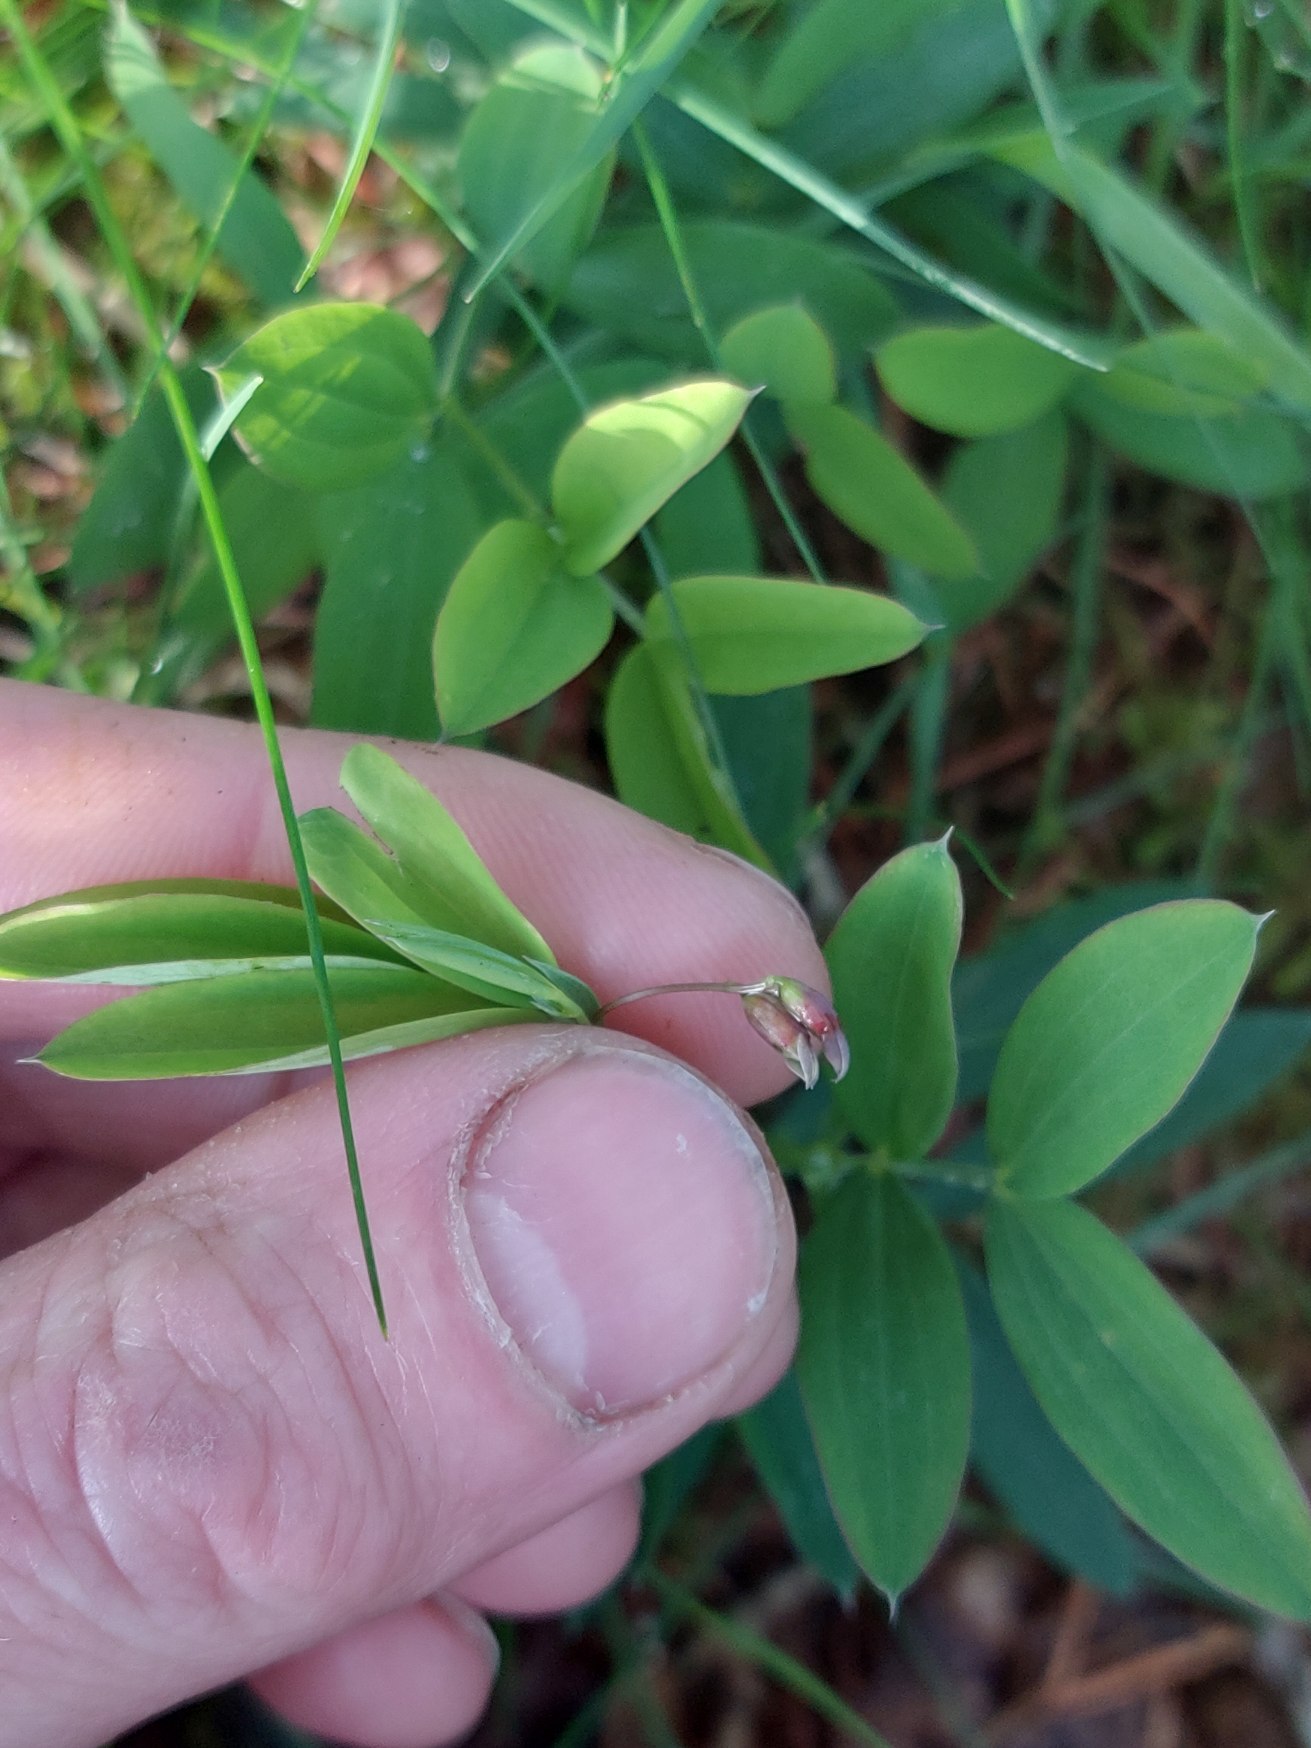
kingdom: Plantae
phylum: Tracheophyta
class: Magnoliopsida
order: Fabales
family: Fabaceae
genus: Lathyrus
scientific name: Lathyrus linifolius
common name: Krat-fladbælg
